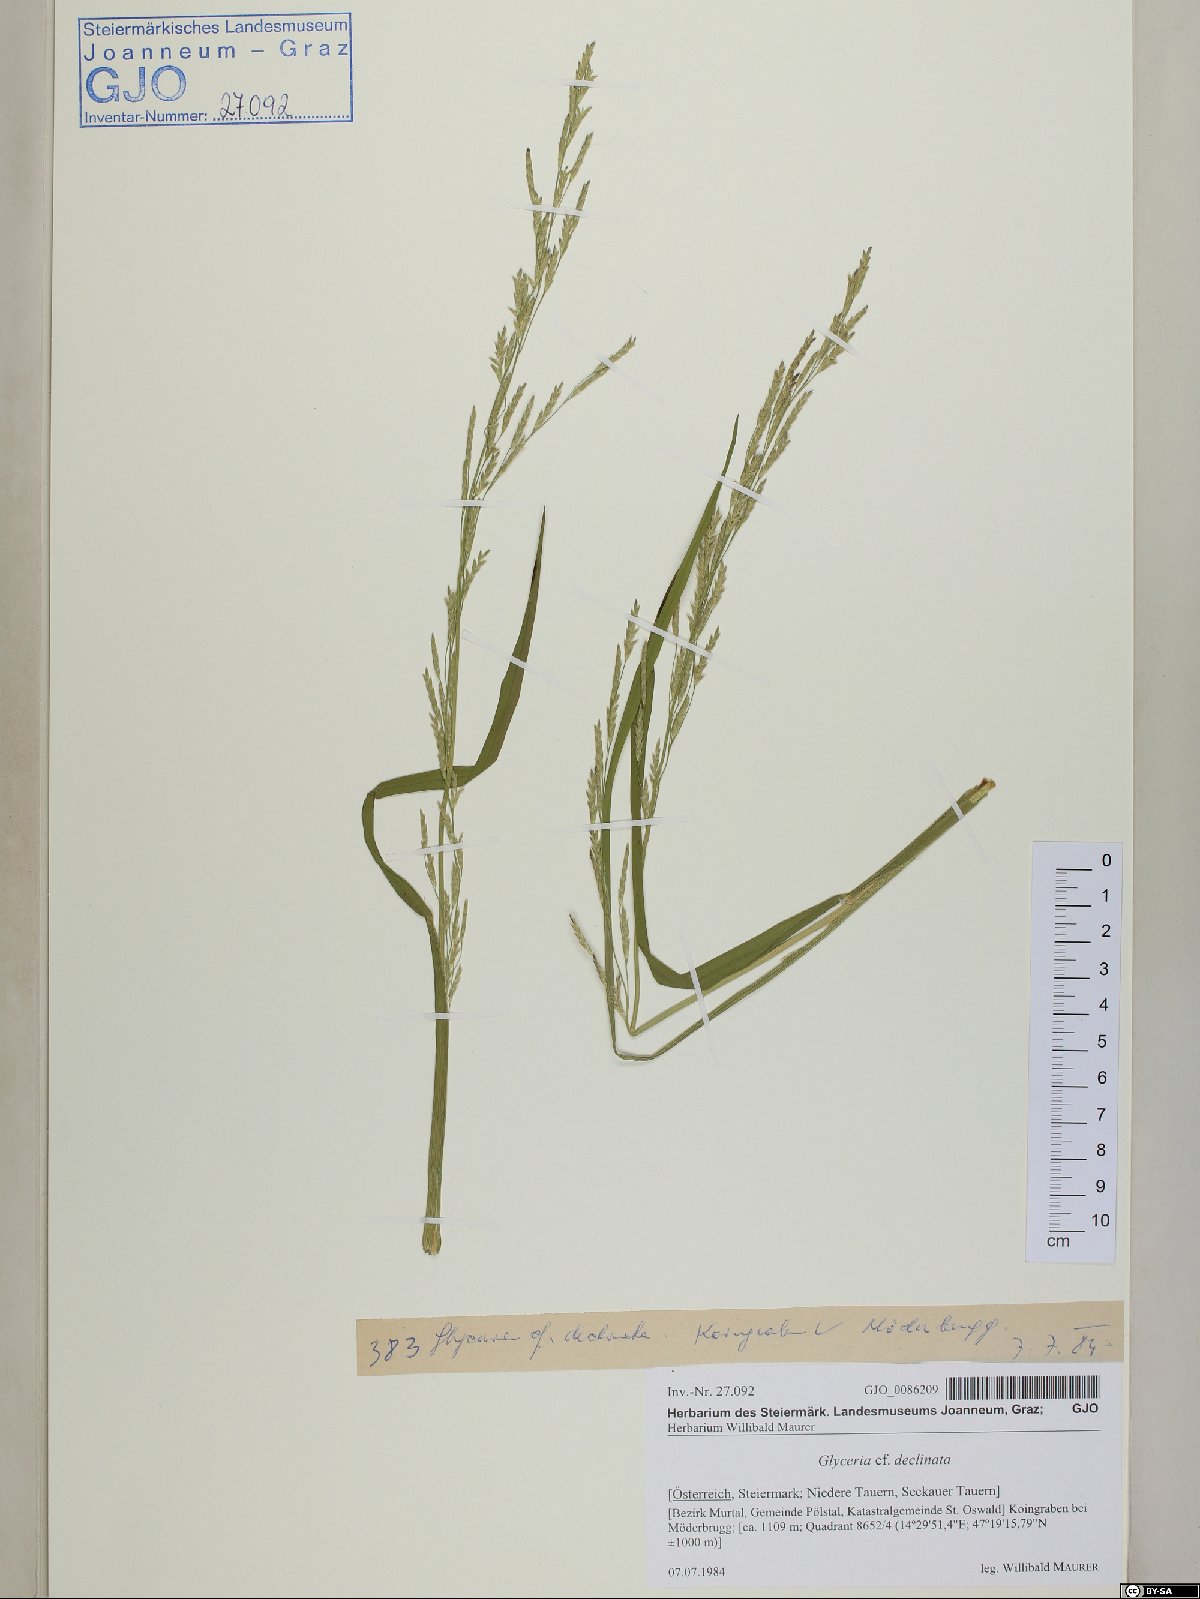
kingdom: Plantae
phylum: Tracheophyta
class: Liliopsida
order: Poales
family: Poaceae
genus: Glyceria
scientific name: Glyceria declinata
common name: Small sweet-grass
